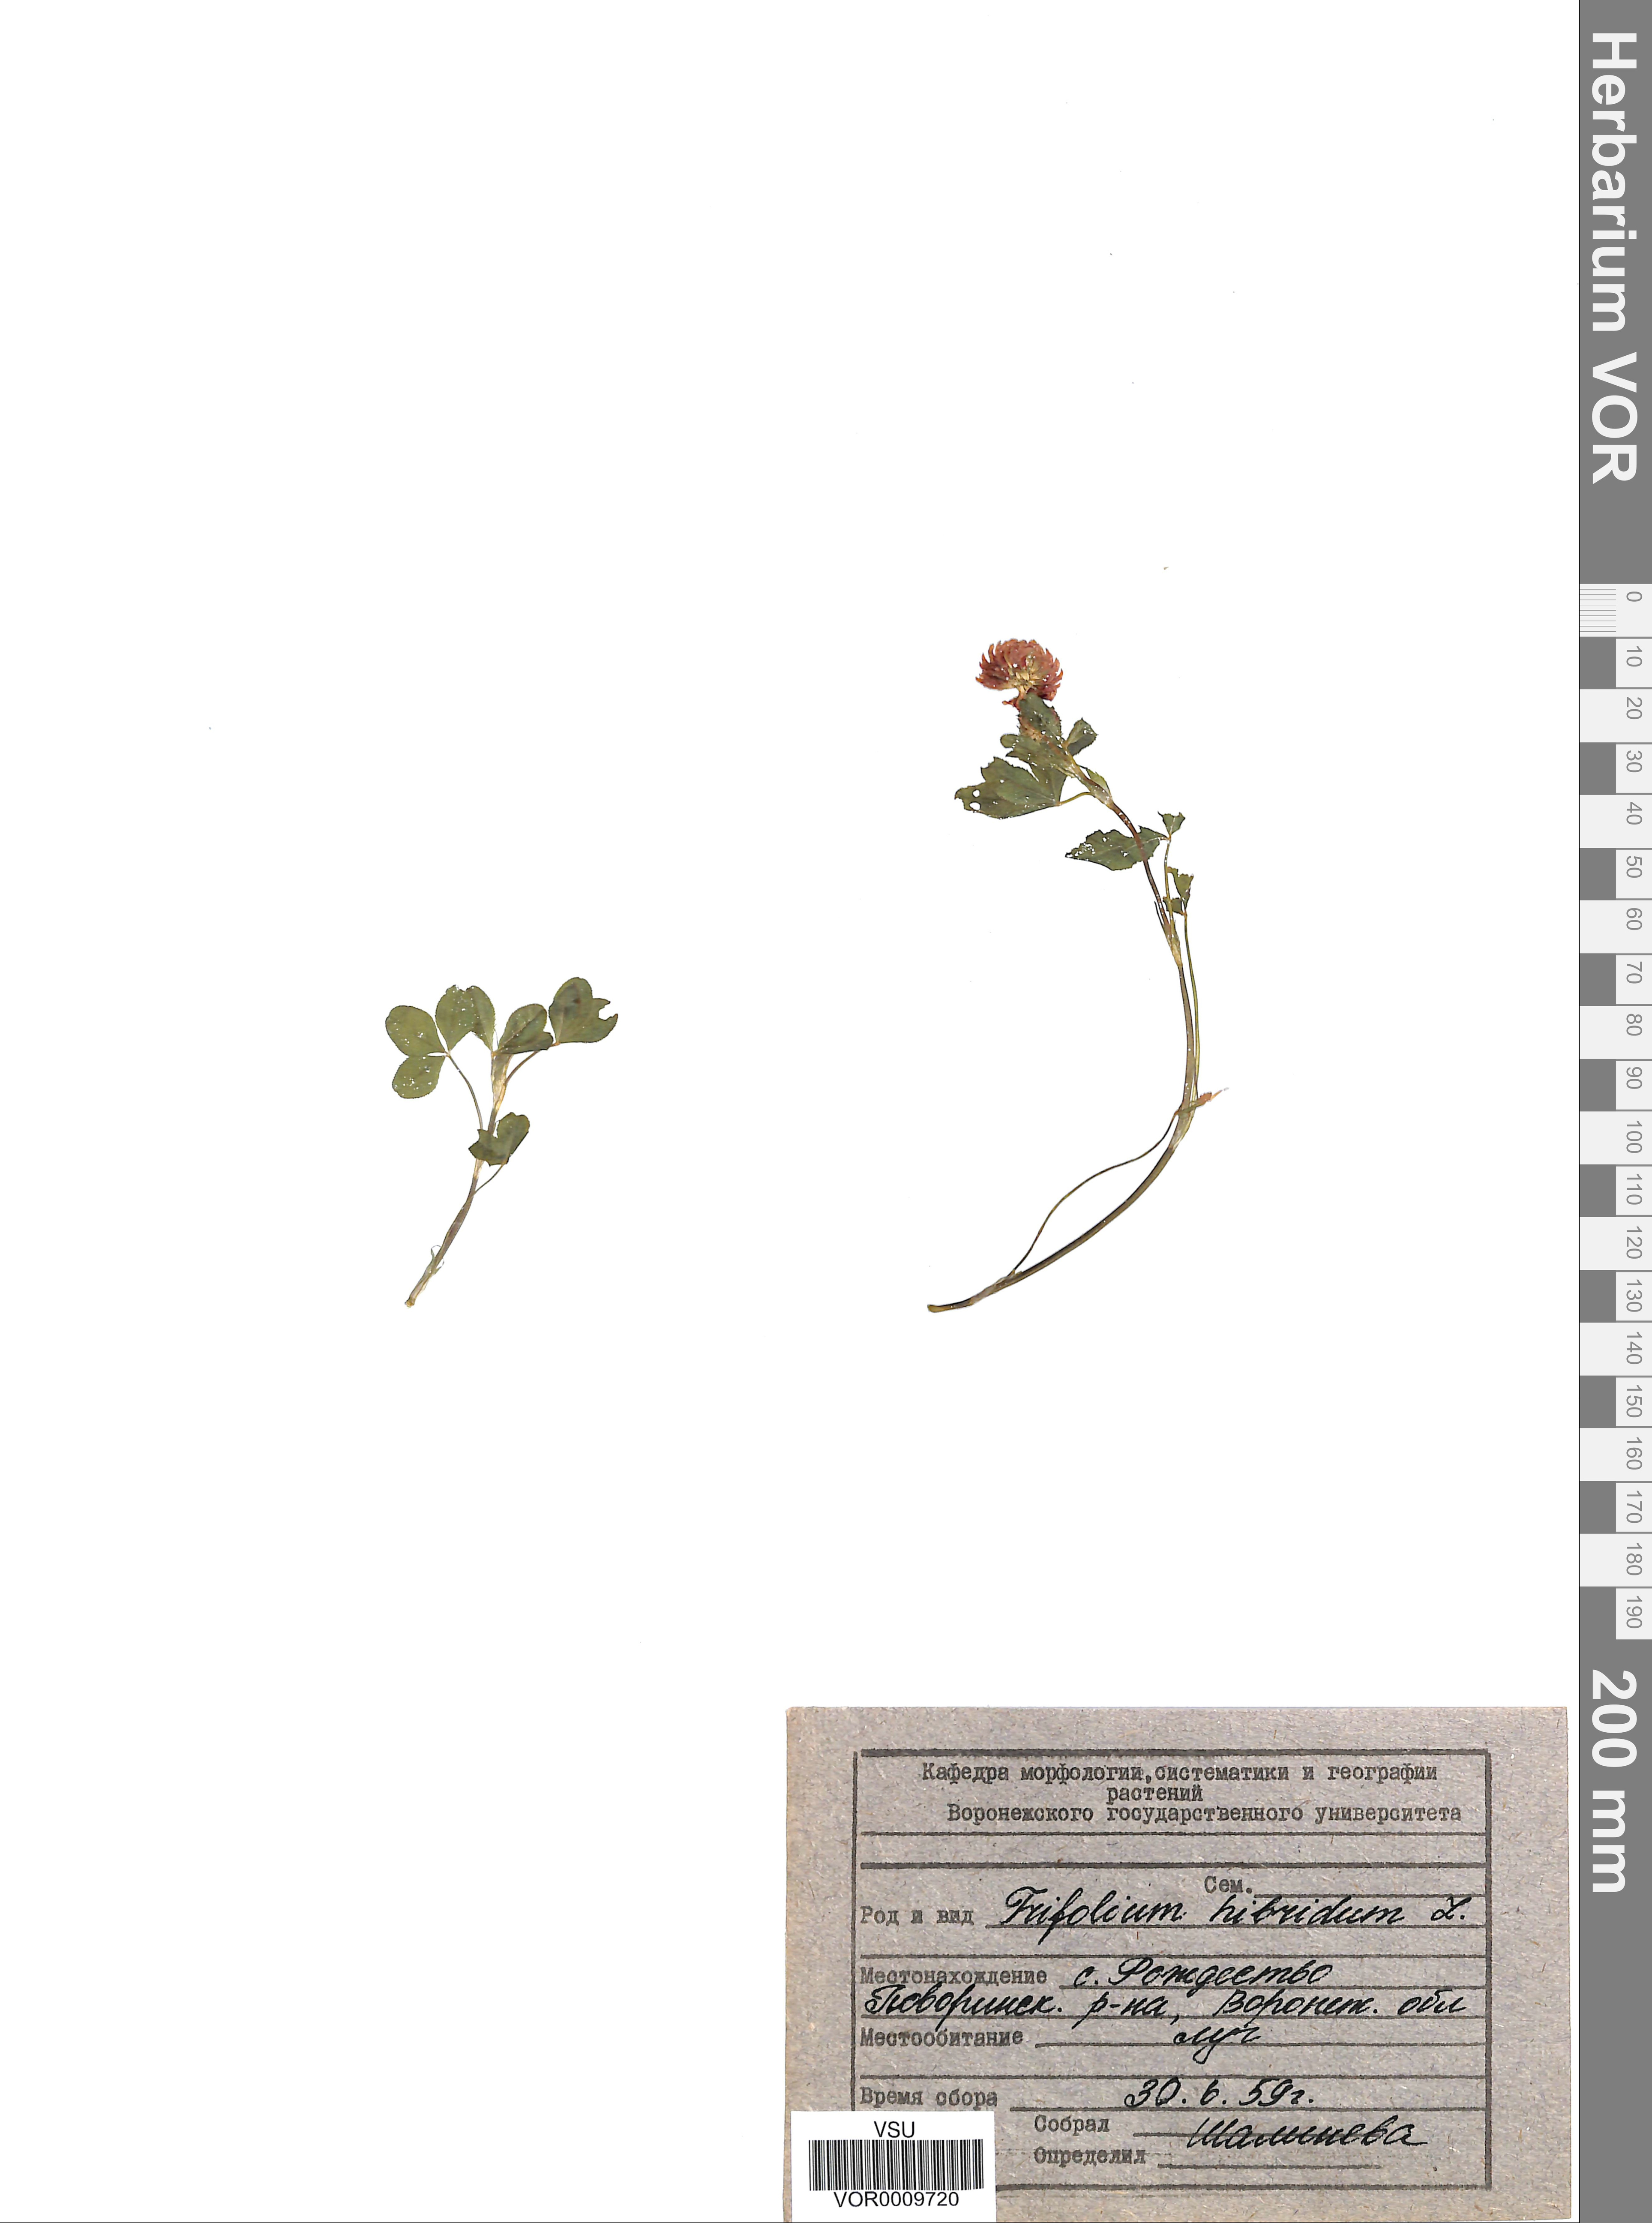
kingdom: Plantae
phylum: Tracheophyta
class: Magnoliopsida
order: Fabales
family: Fabaceae
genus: Trifolium
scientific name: Trifolium hybridum
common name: Alsike clover
